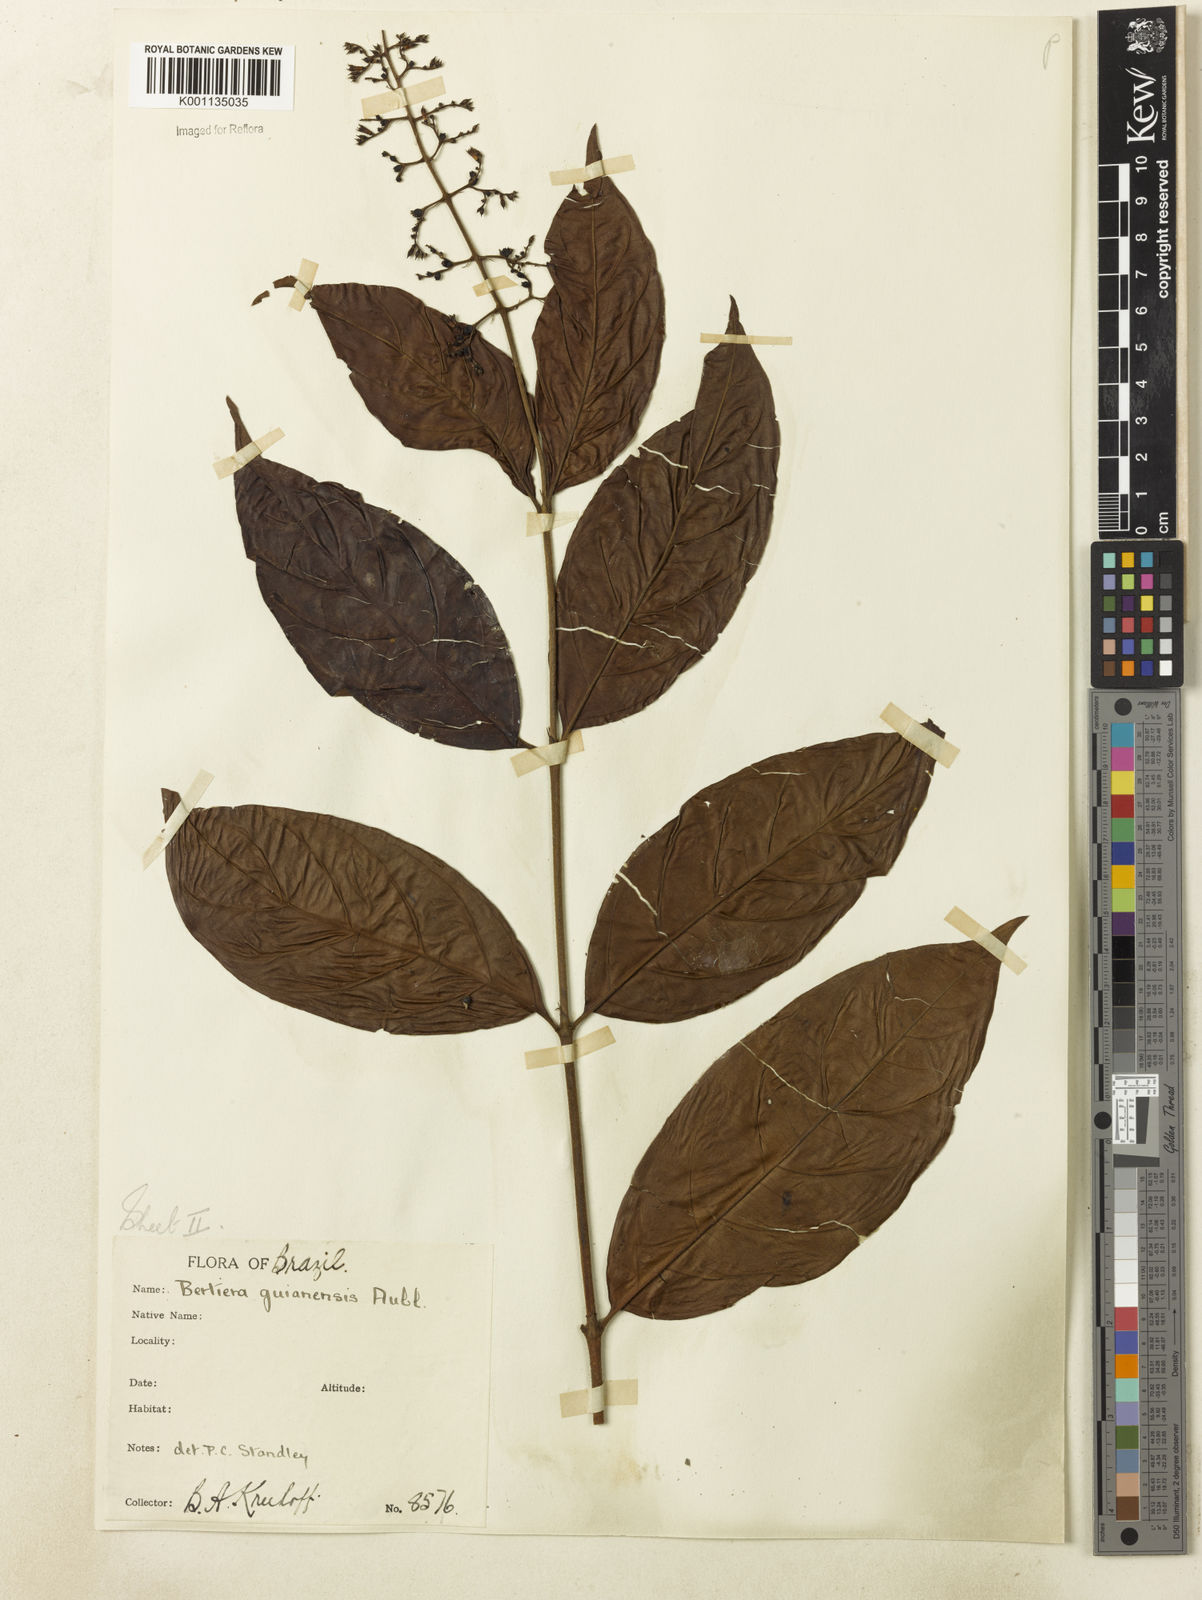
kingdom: Plantae
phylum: Tracheophyta
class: Magnoliopsida
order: Gentianales
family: Rubiaceae
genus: Bertiera
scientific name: Bertiera guianensis
